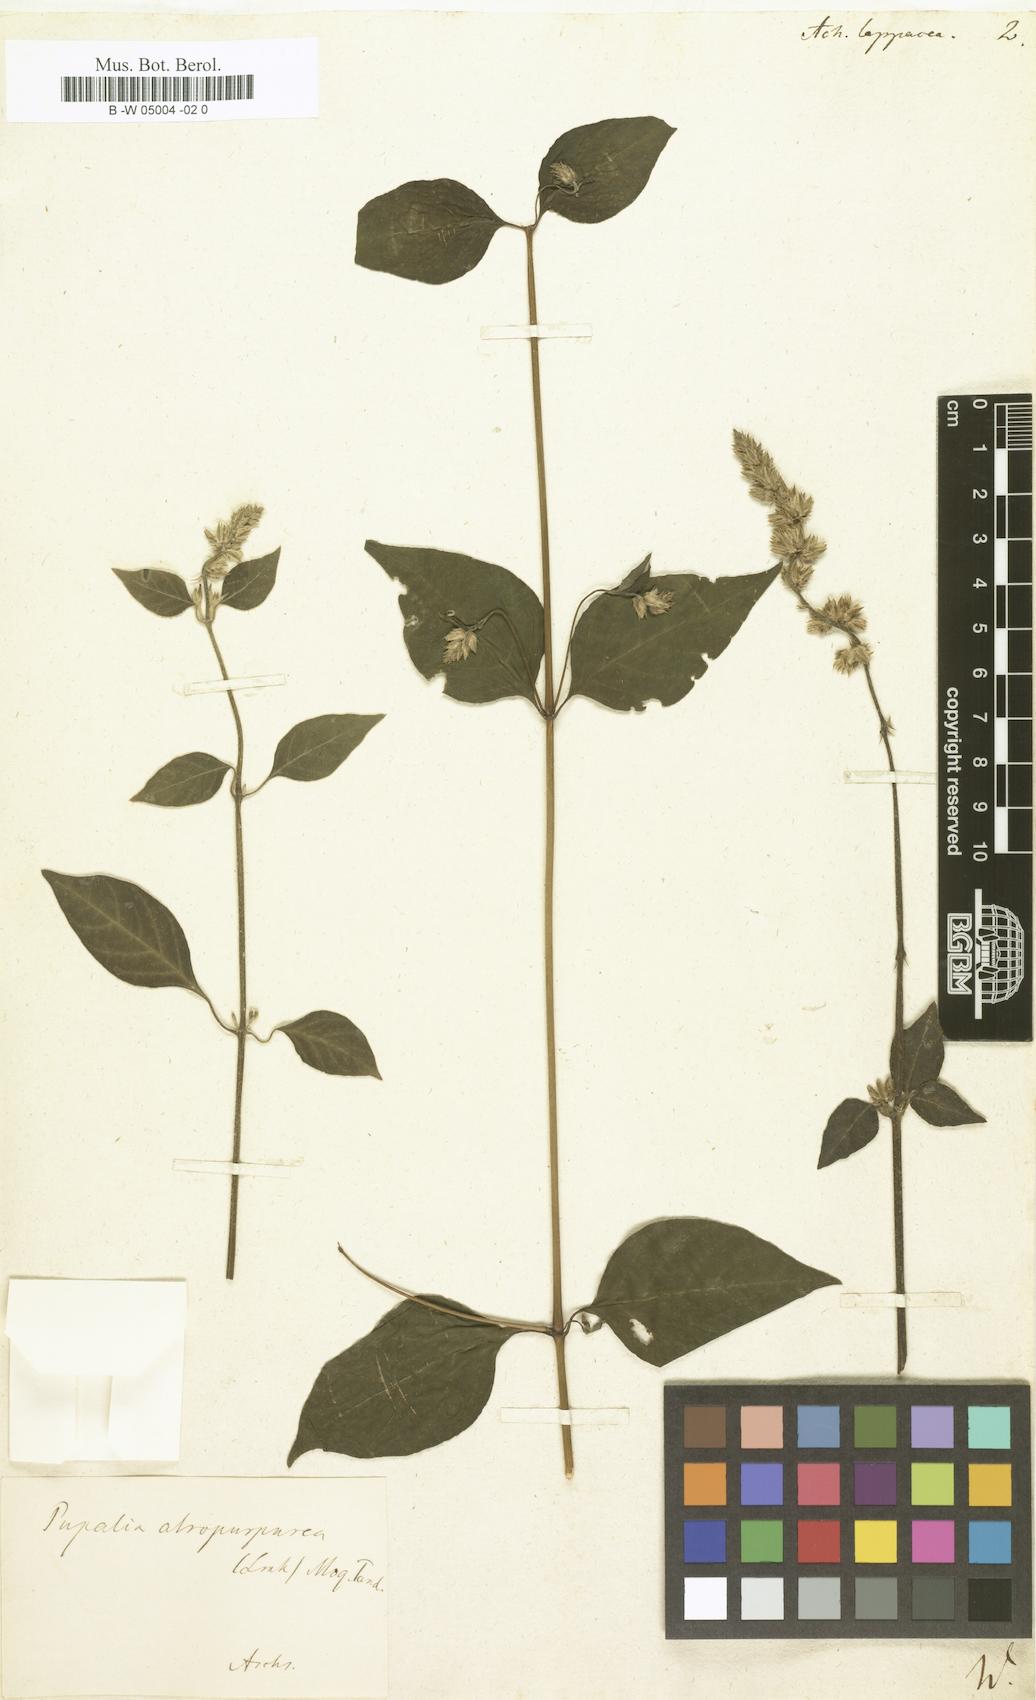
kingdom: Plantae
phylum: Tracheophyta
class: Magnoliopsida
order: Caryophyllales
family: Amaranthaceae
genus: Pupalia
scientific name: Pupalia lappacea
